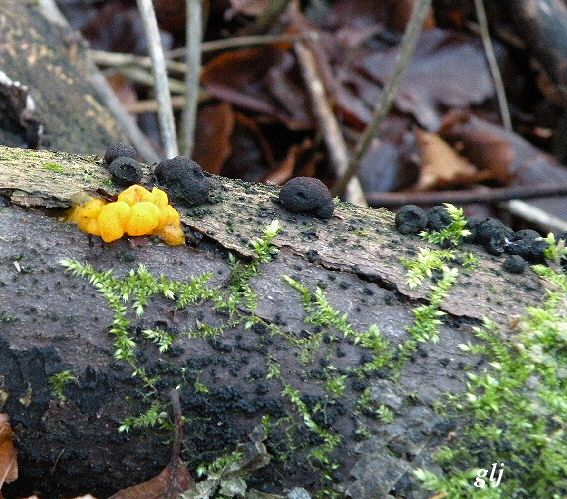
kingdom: Fungi
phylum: Ascomycota
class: Sordariomycetes
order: Xylariales
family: Hypoxylaceae
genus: Hypoxylon
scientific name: Hypoxylon fragiforme
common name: kuljordbær
